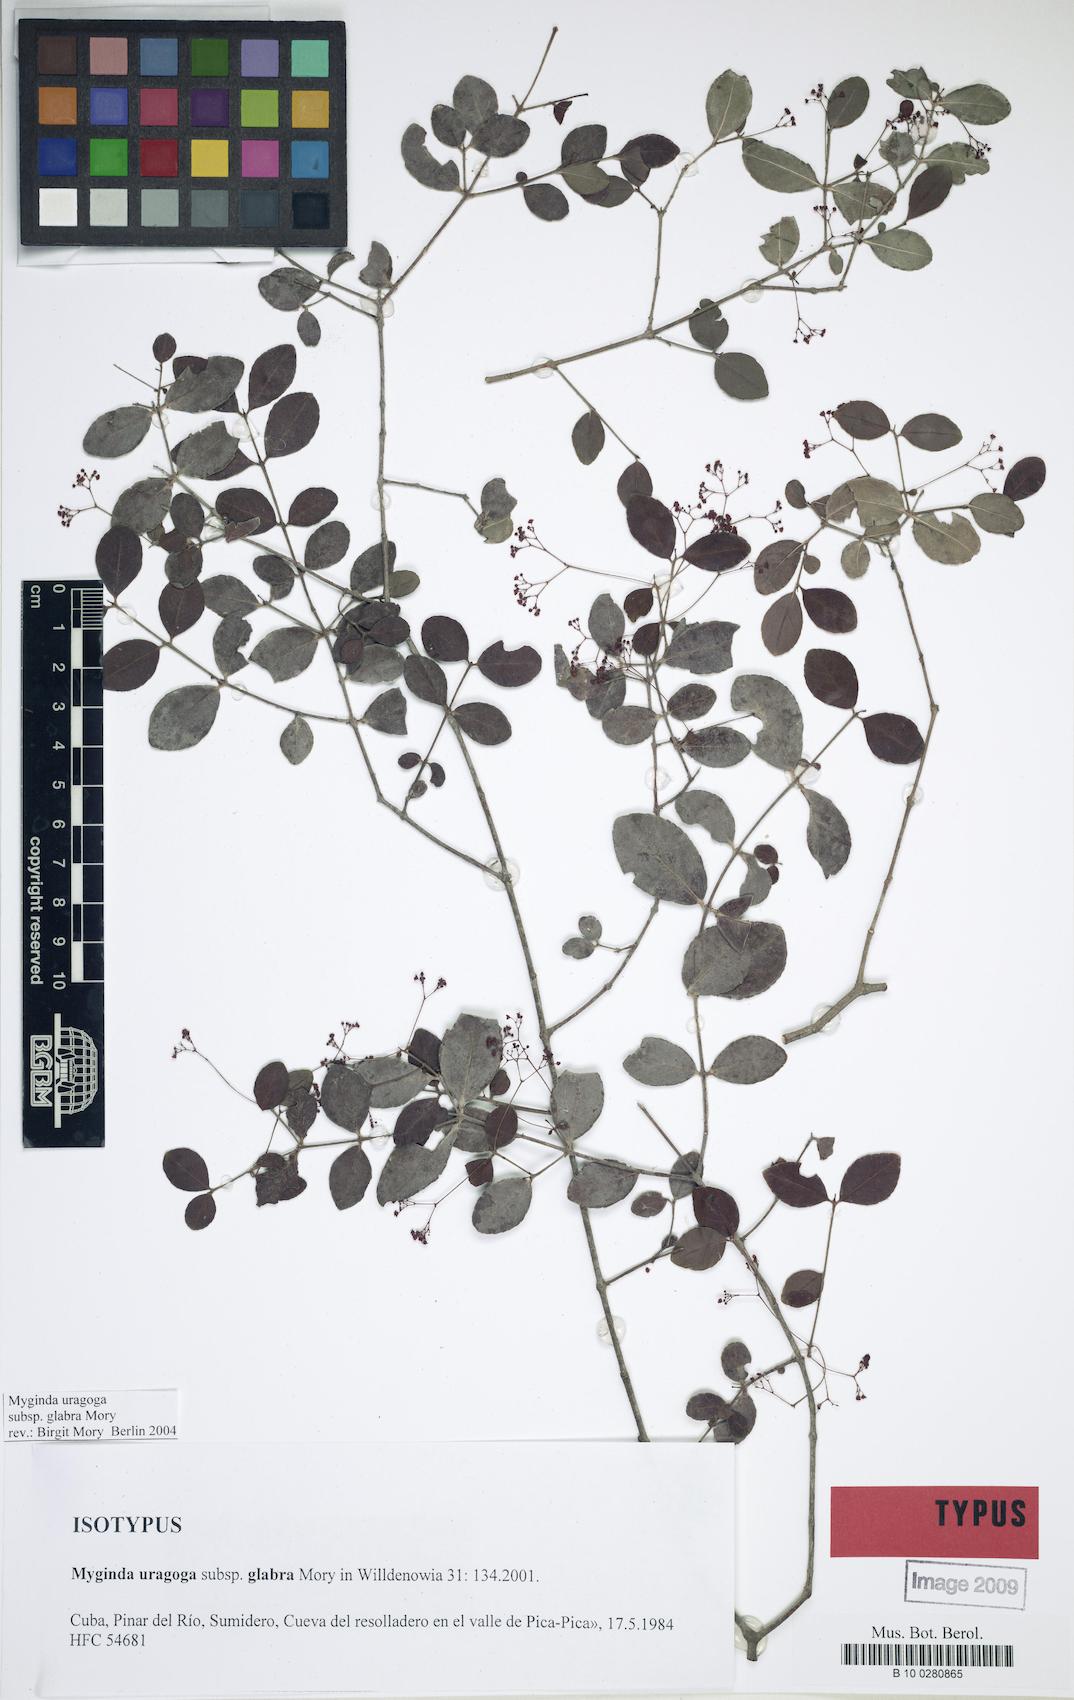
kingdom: Plantae
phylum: Tracheophyta
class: Magnoliopsida
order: Celastrales
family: Celastraceae
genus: Crossopetalum
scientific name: Crossopetalum uragoga
